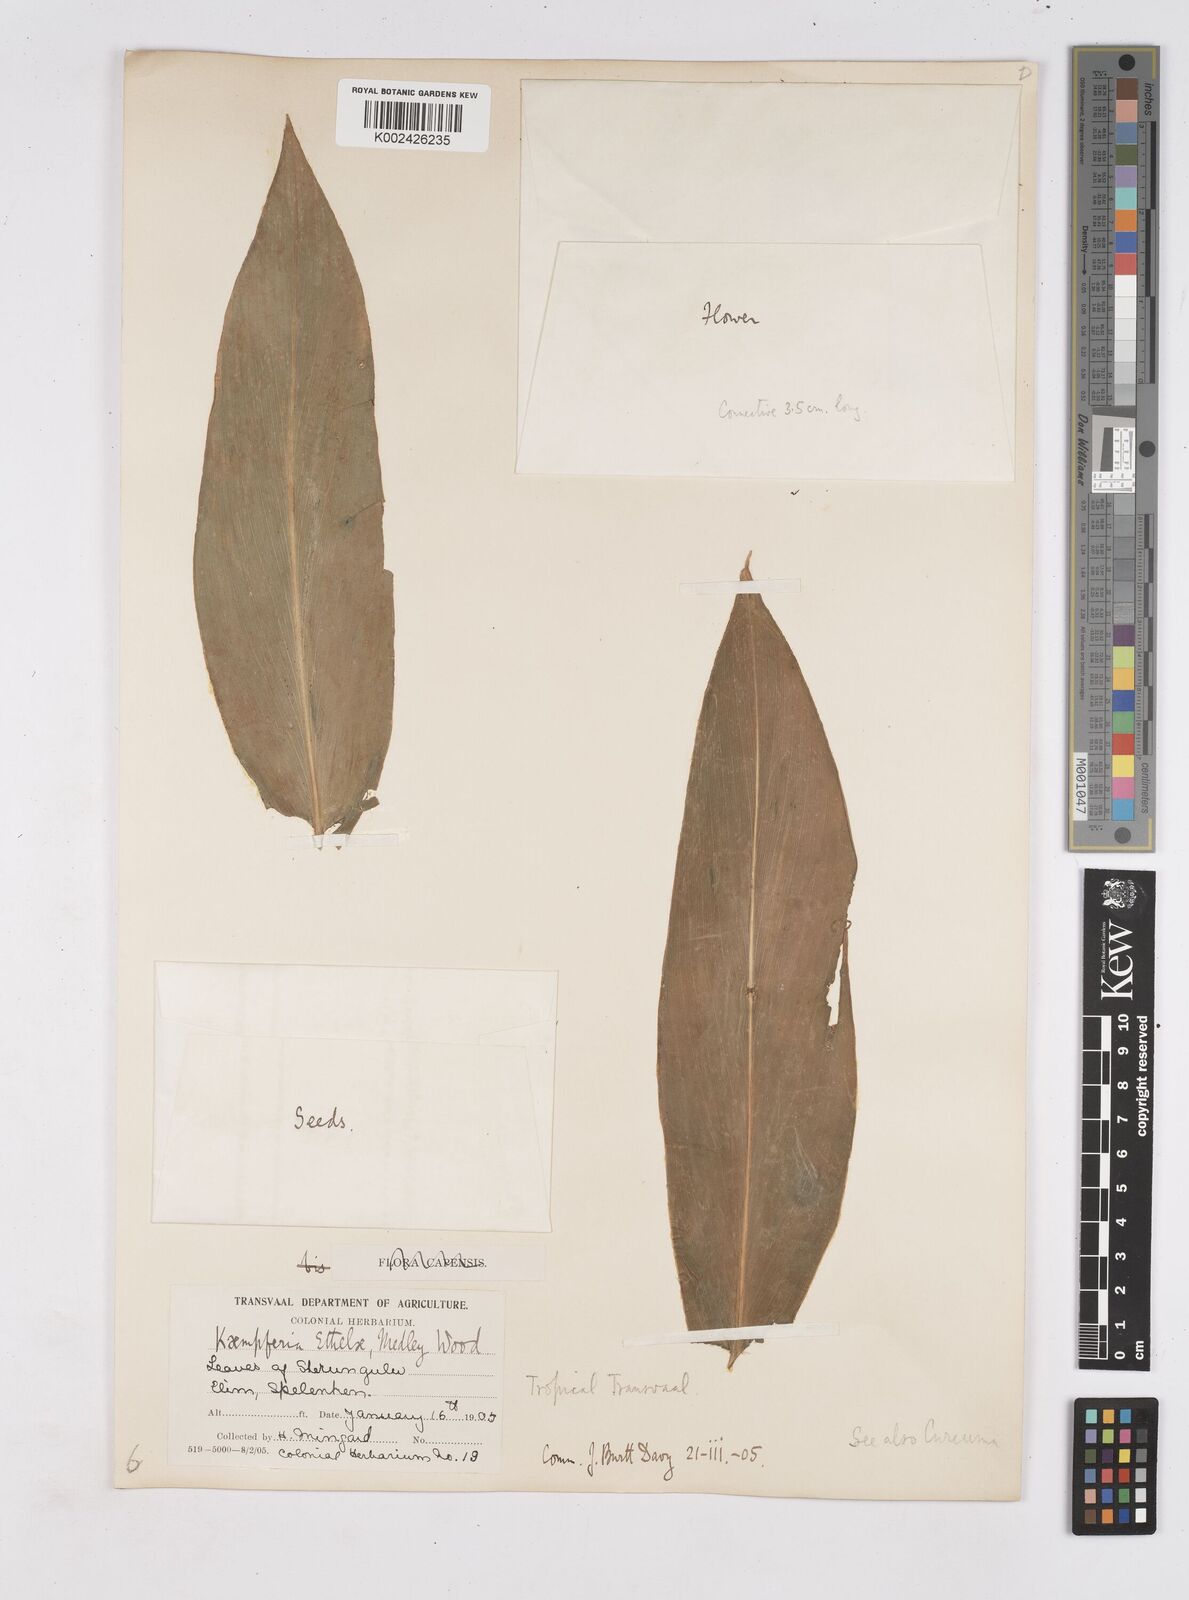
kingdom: Plantae
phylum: Tracheophyta
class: Liliopsida
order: Zingiberales
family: Zingiberaceae
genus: Siphonochilus
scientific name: Siphonochilus
